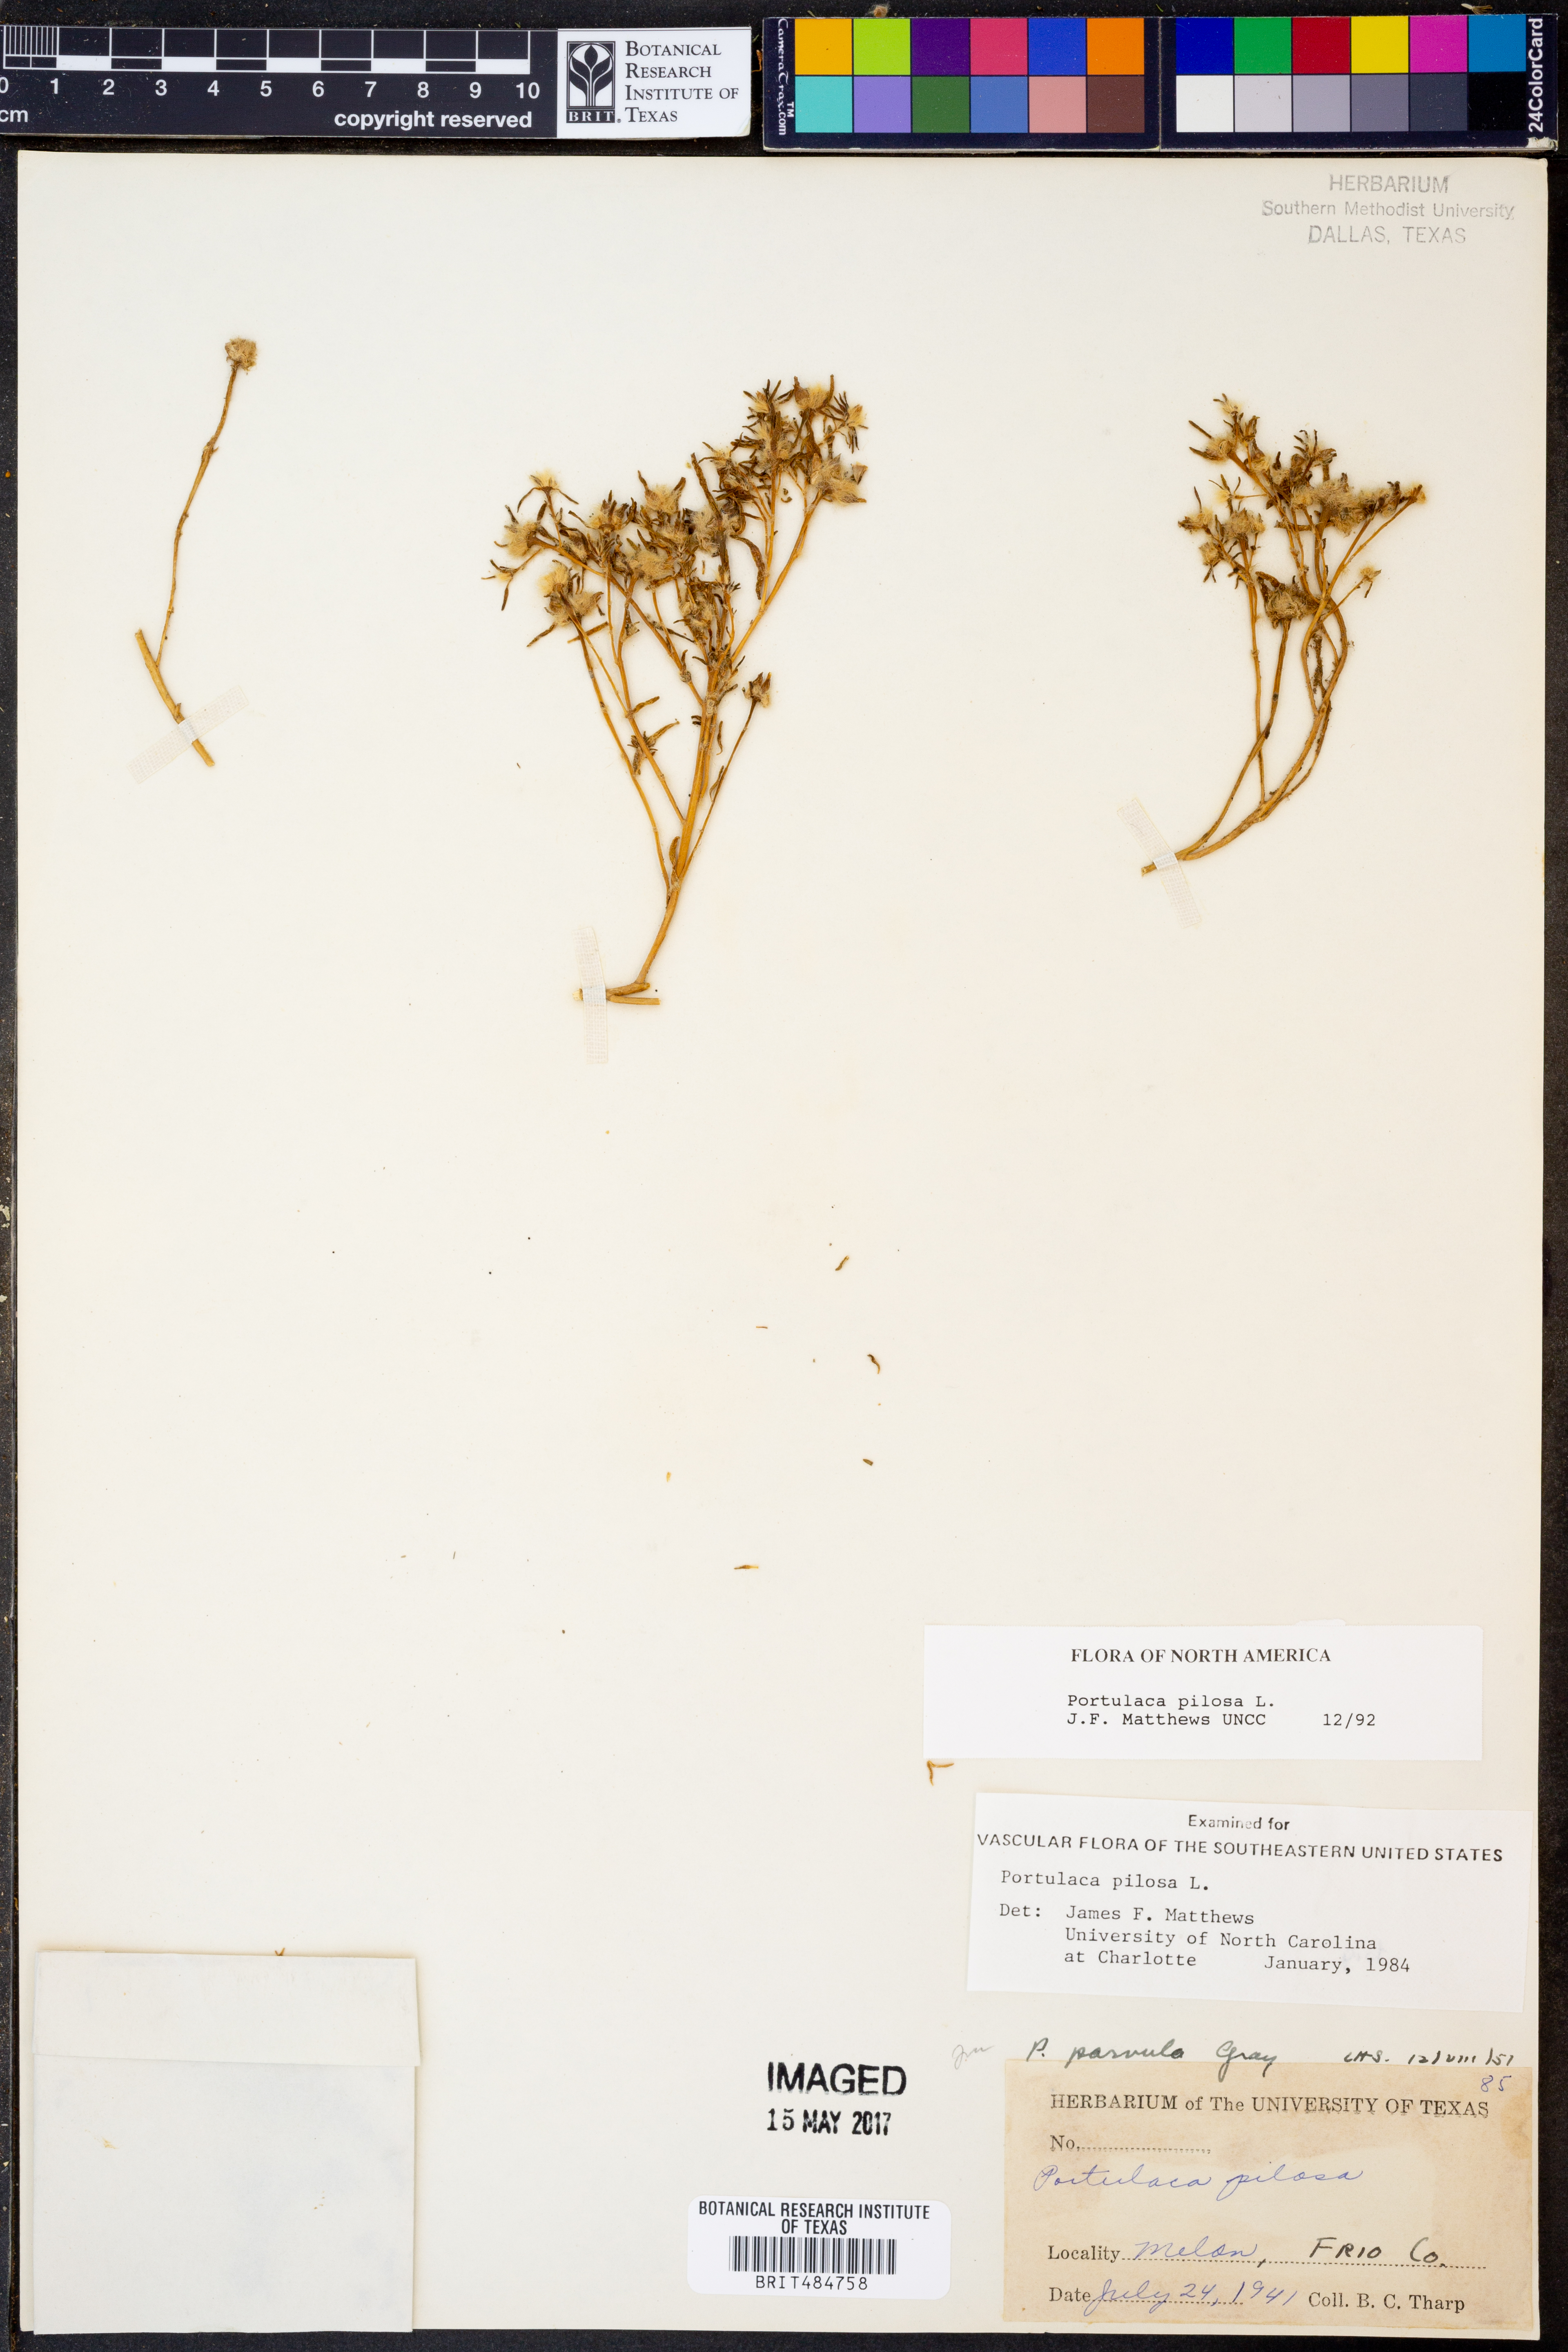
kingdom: Plantae
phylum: Tracheophyta
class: Magnoliopsida
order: Caryophyllales
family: Portulacaceae
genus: Portulaca
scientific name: Portulaca pilosa
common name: Kiss me quick
